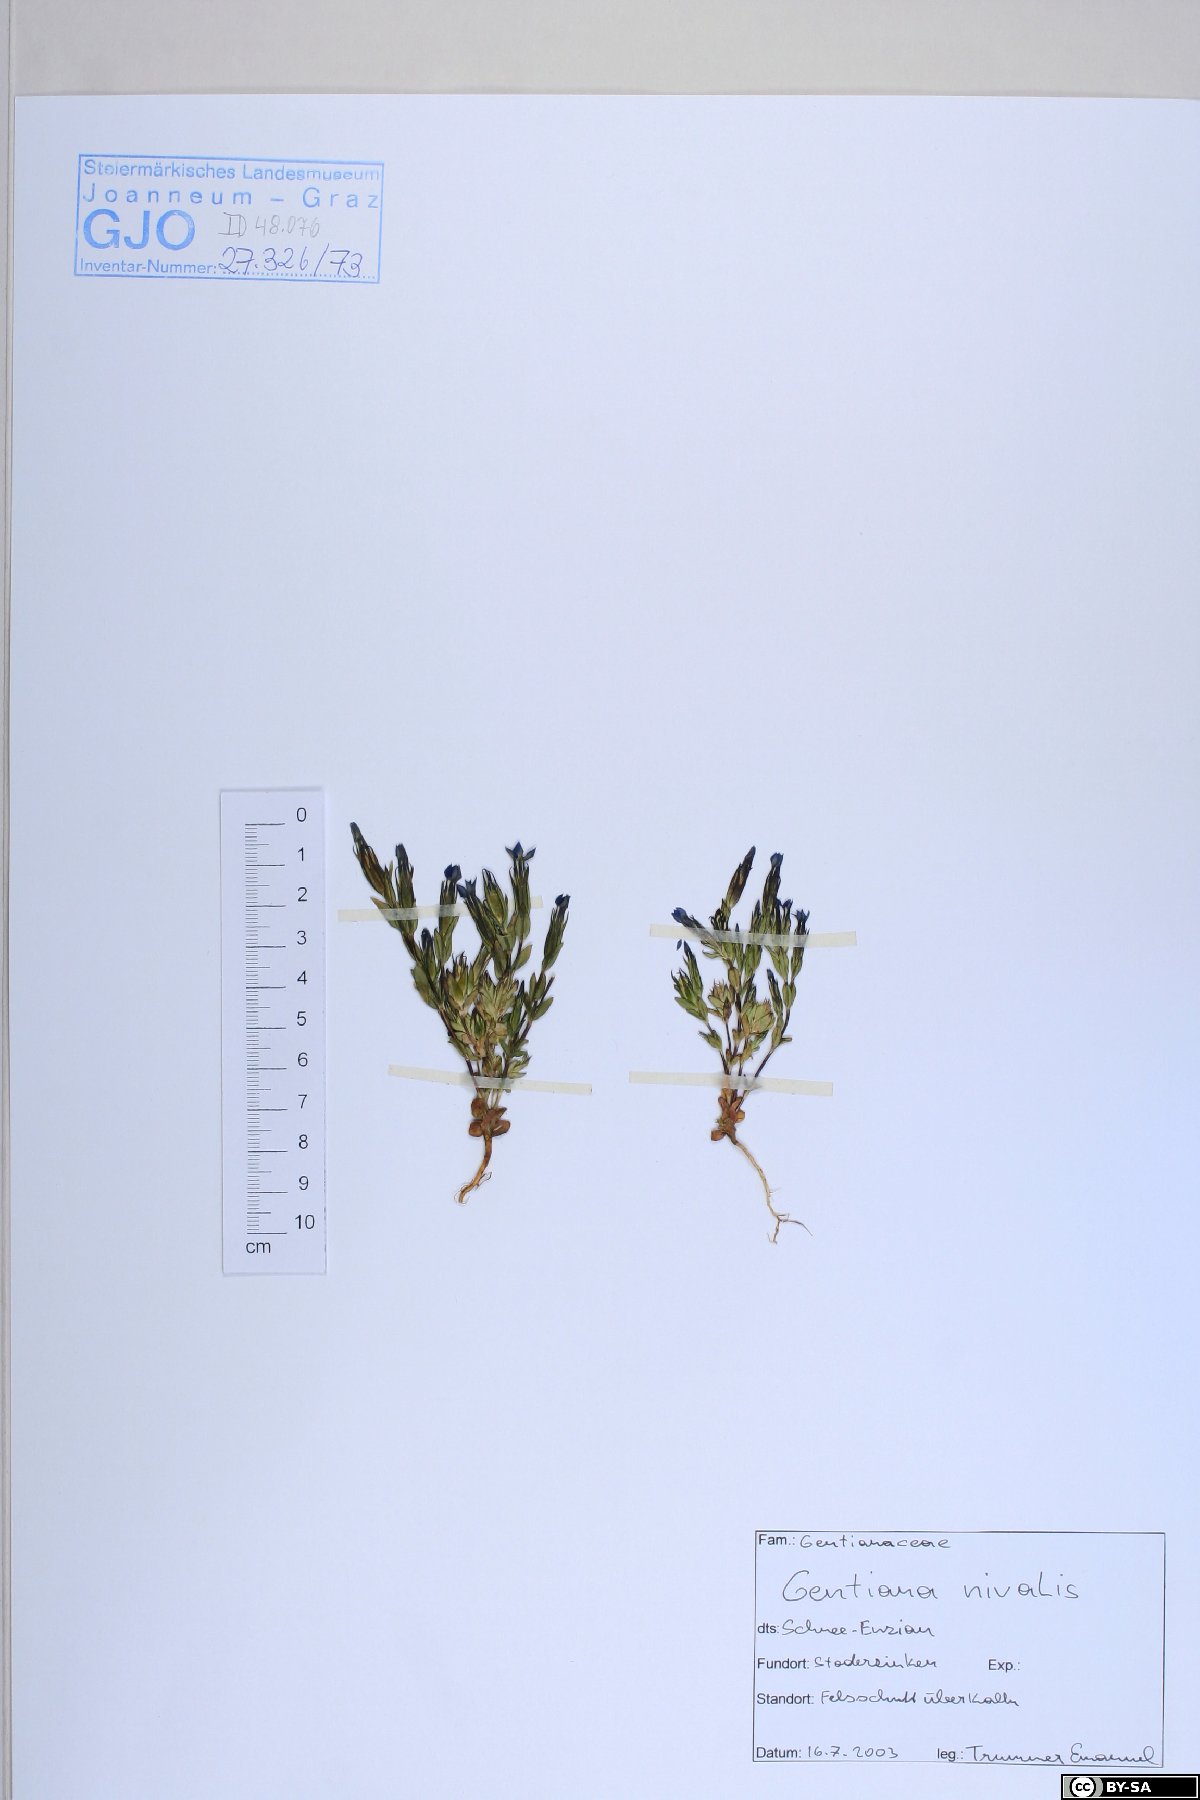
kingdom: Plantae
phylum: Tracheophyta
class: Magnoliopsida
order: Gentianales
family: Gentianaceae
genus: Gentiana
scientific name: Gentiana nivalis
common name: Alpine gentian
